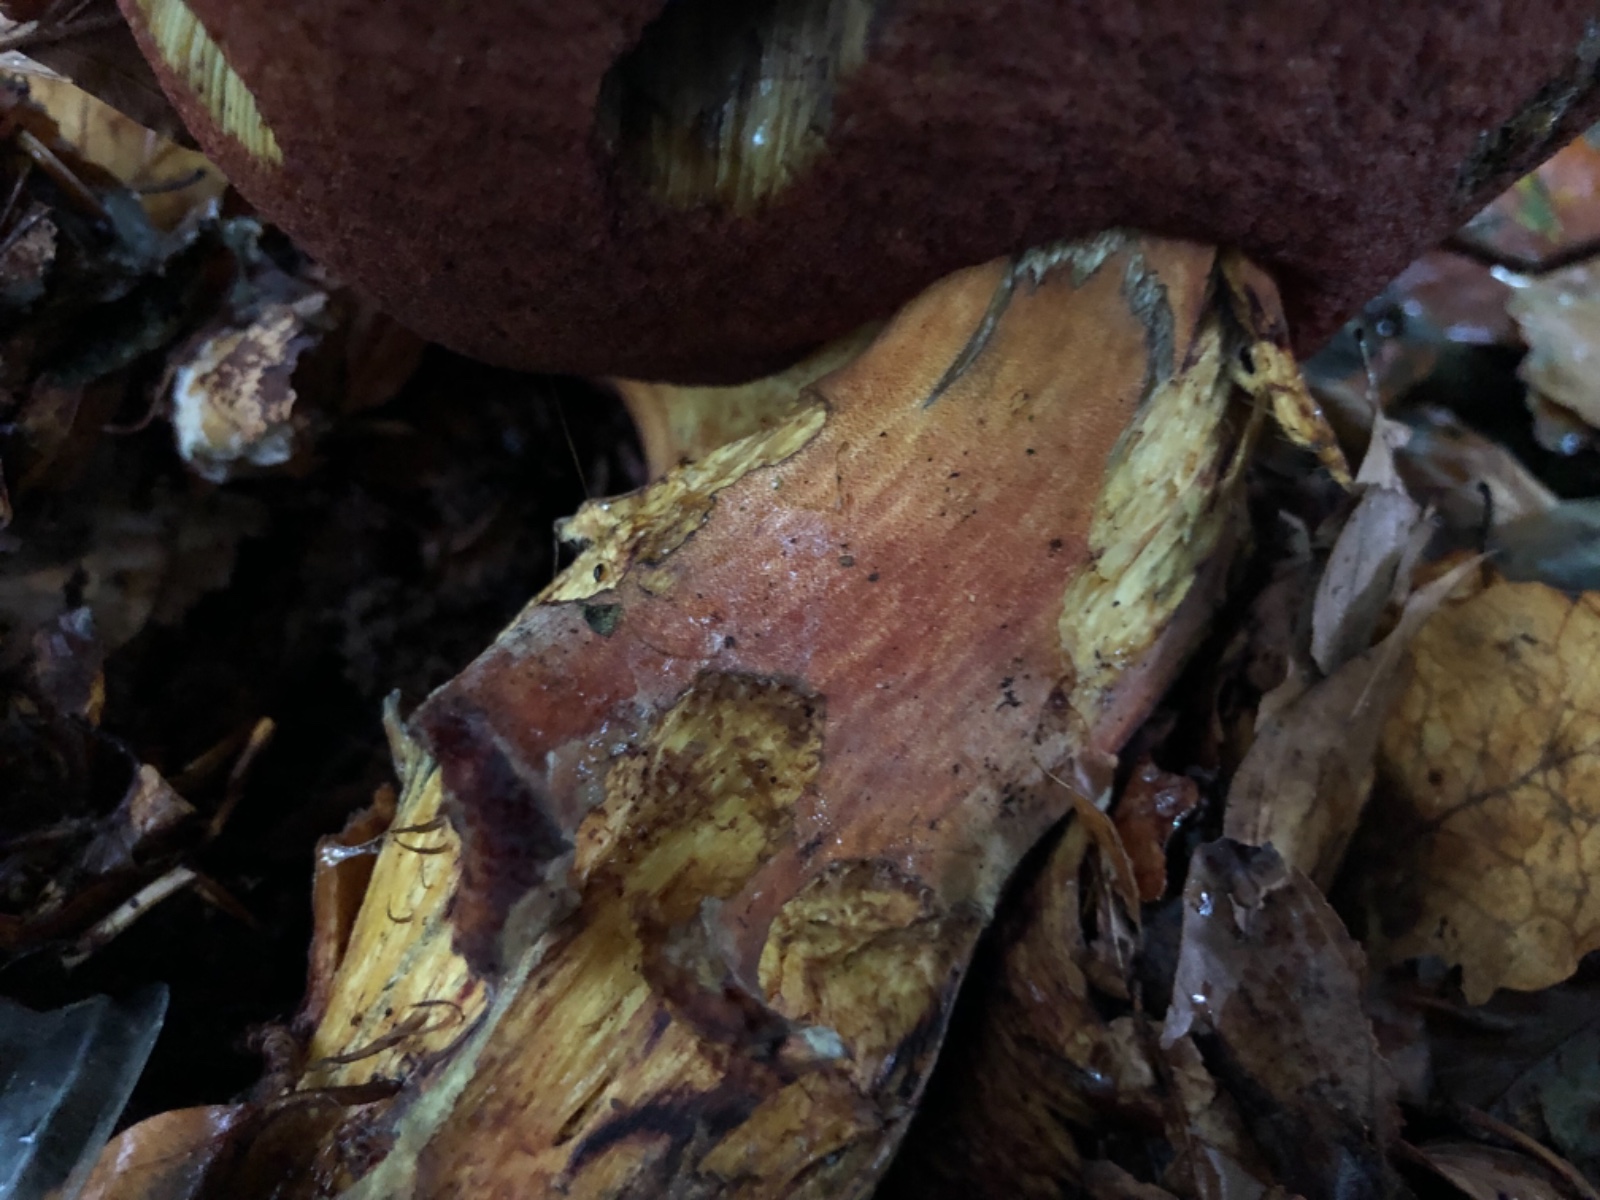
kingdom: Fungi
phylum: Basidiomycota
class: Agaricomycetes
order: Boletales
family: Boletaceae
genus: Neoboletus
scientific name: Neoboletus erythropus
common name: punktstokket indigorørhat
